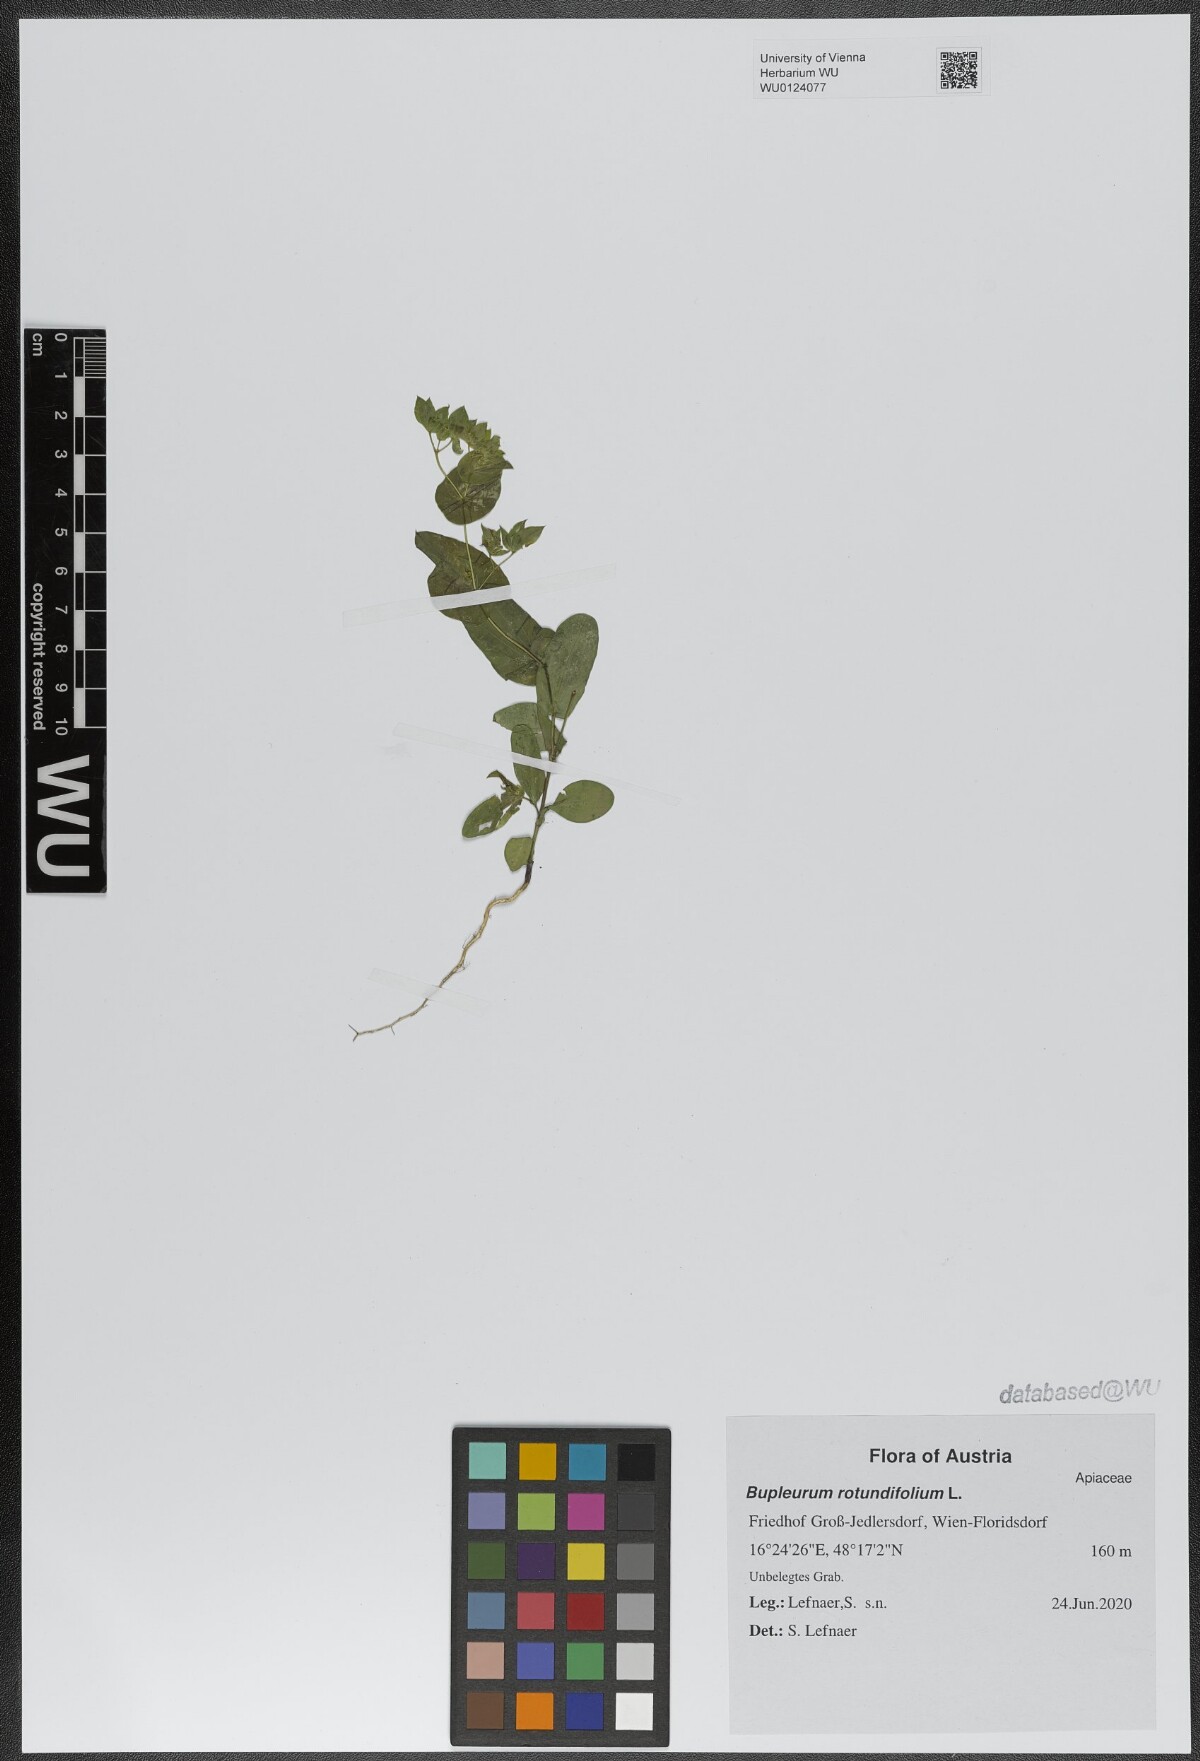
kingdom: Plantae
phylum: Tracheophyta
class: Magnoliopsida
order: Apiales
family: Apiaceae
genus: Bupleurum
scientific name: Bupleurum rotundifolium
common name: Thorow-wax
